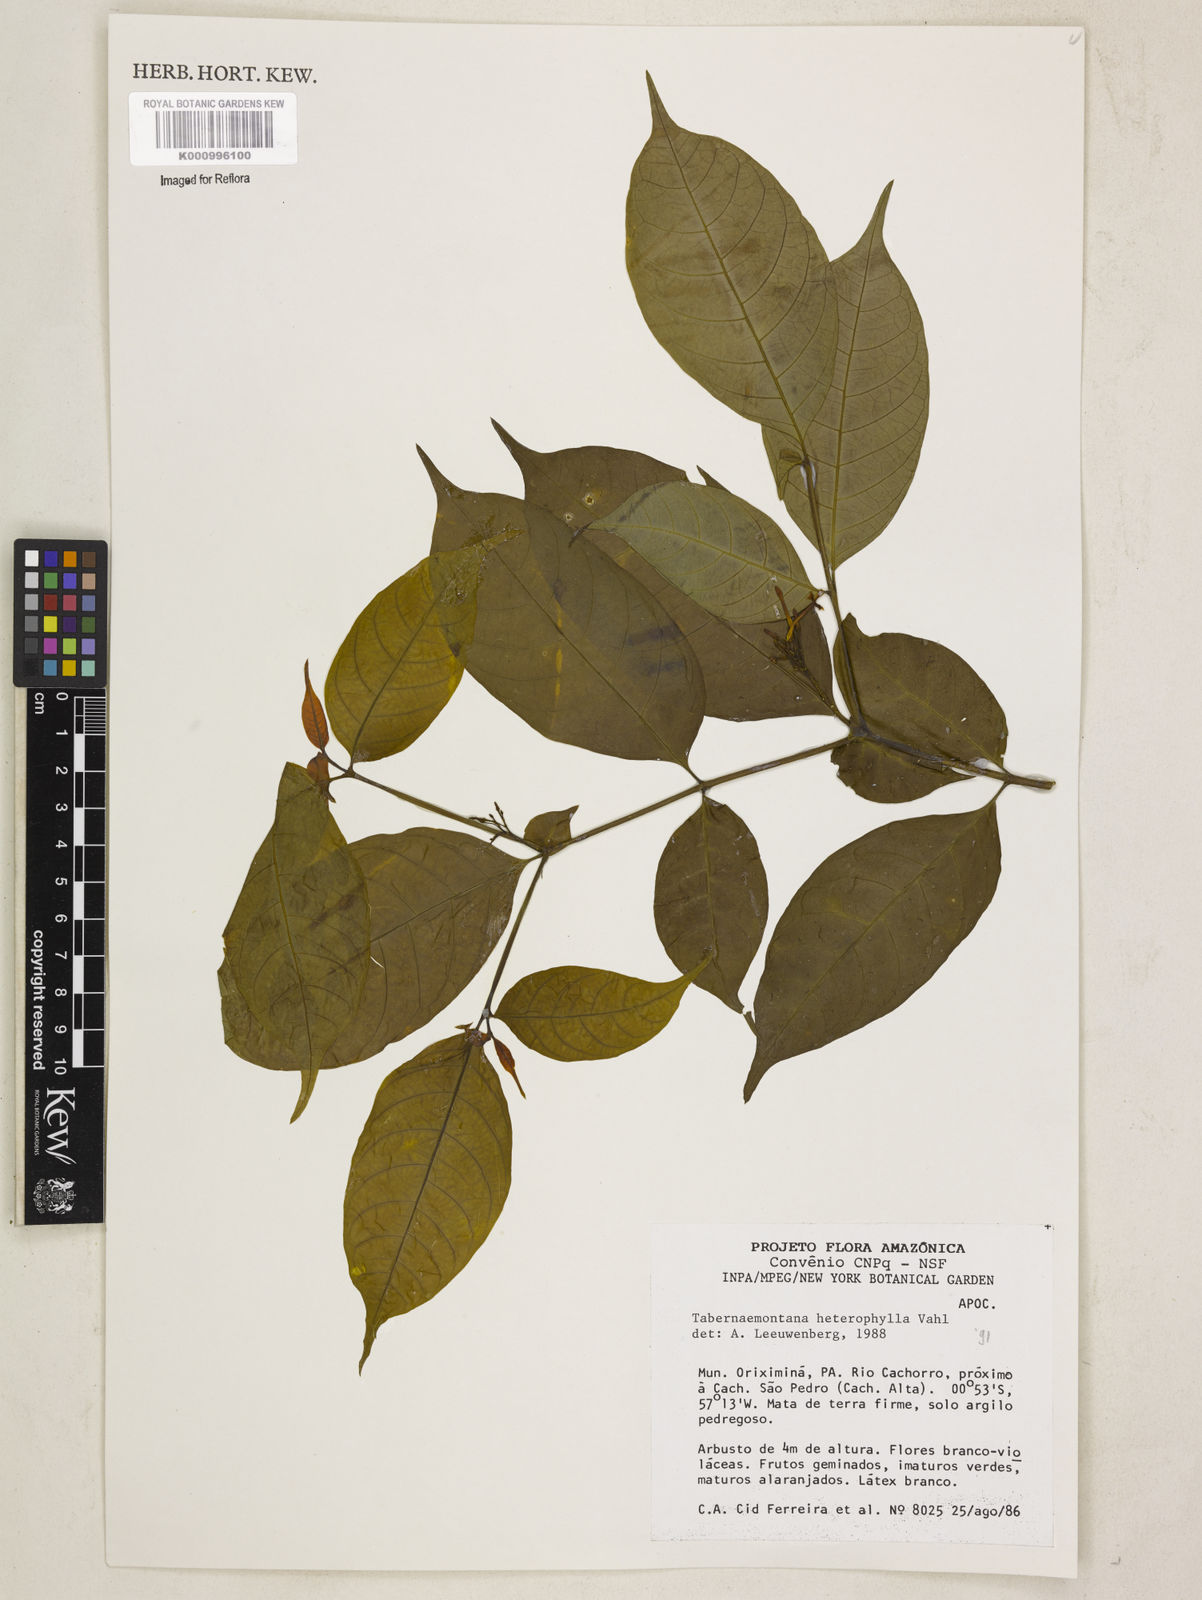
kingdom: Plantae
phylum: Tracheophyta
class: Magnoliopsida
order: Gentianales
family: Apocynaceae
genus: Tabernaemontana
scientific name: Tabernaemontana heterophylla
